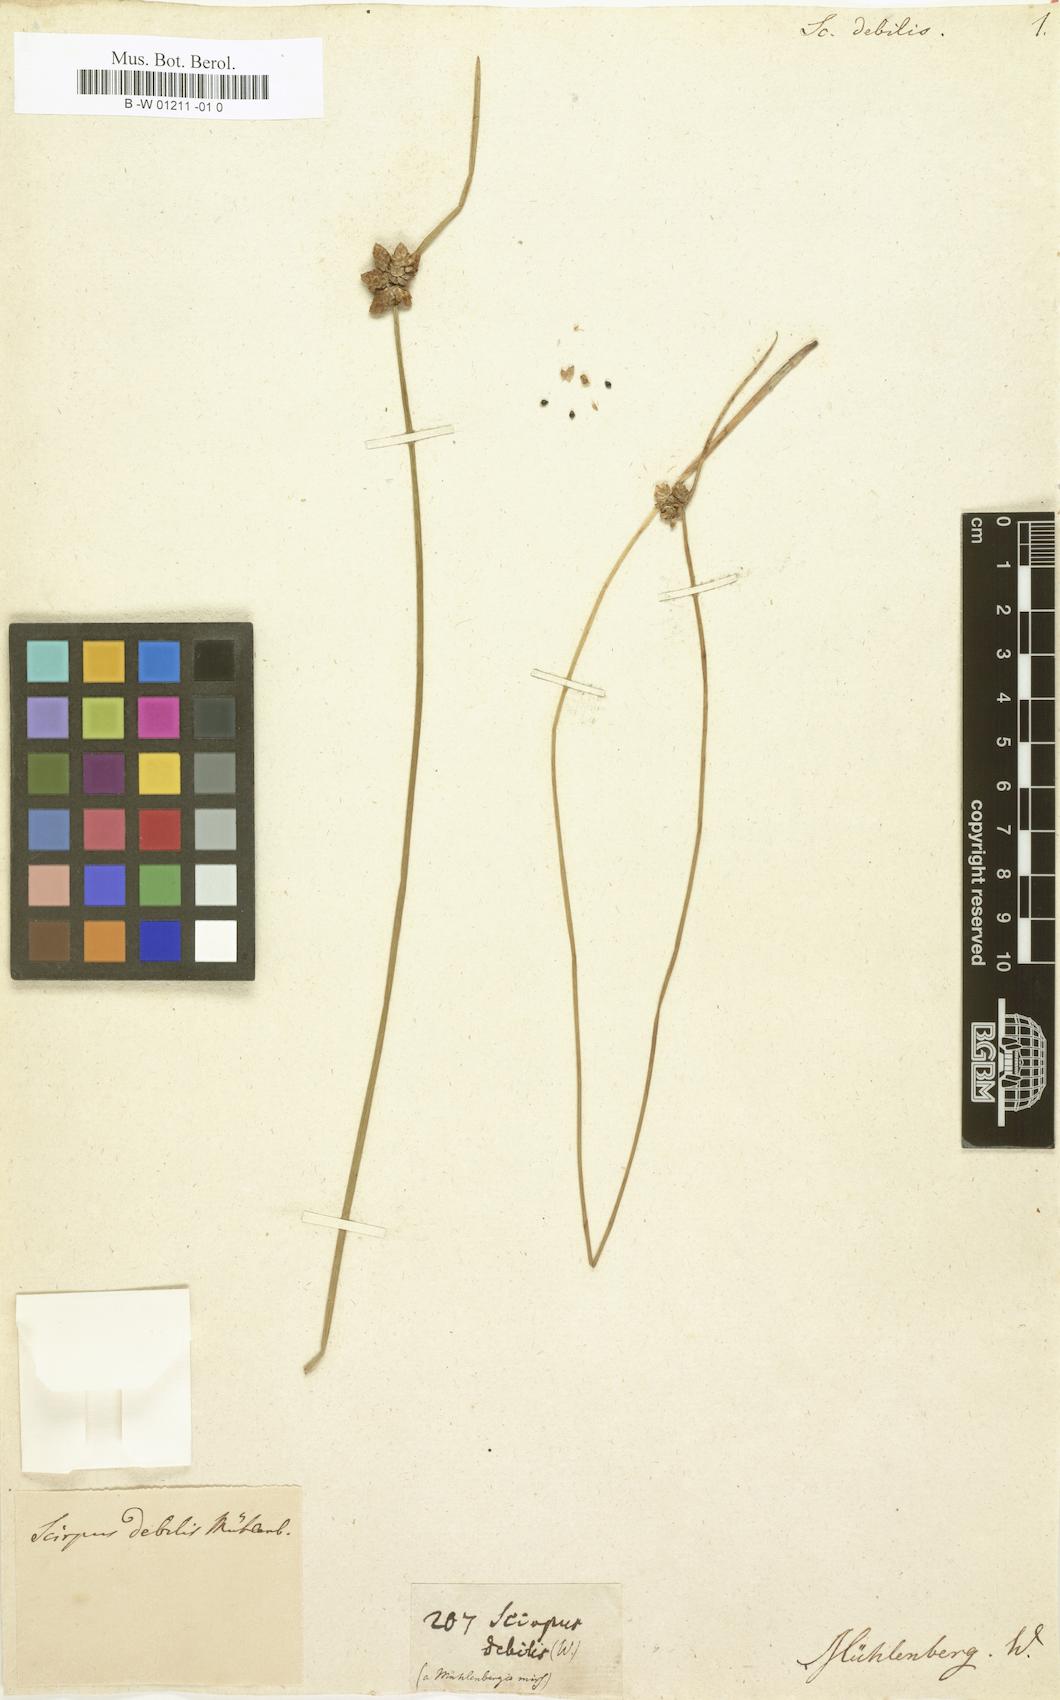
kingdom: Plantae
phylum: Tracheophyta
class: Liliopsida
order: Poales
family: Cyperaceae
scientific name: Cyperaceae
